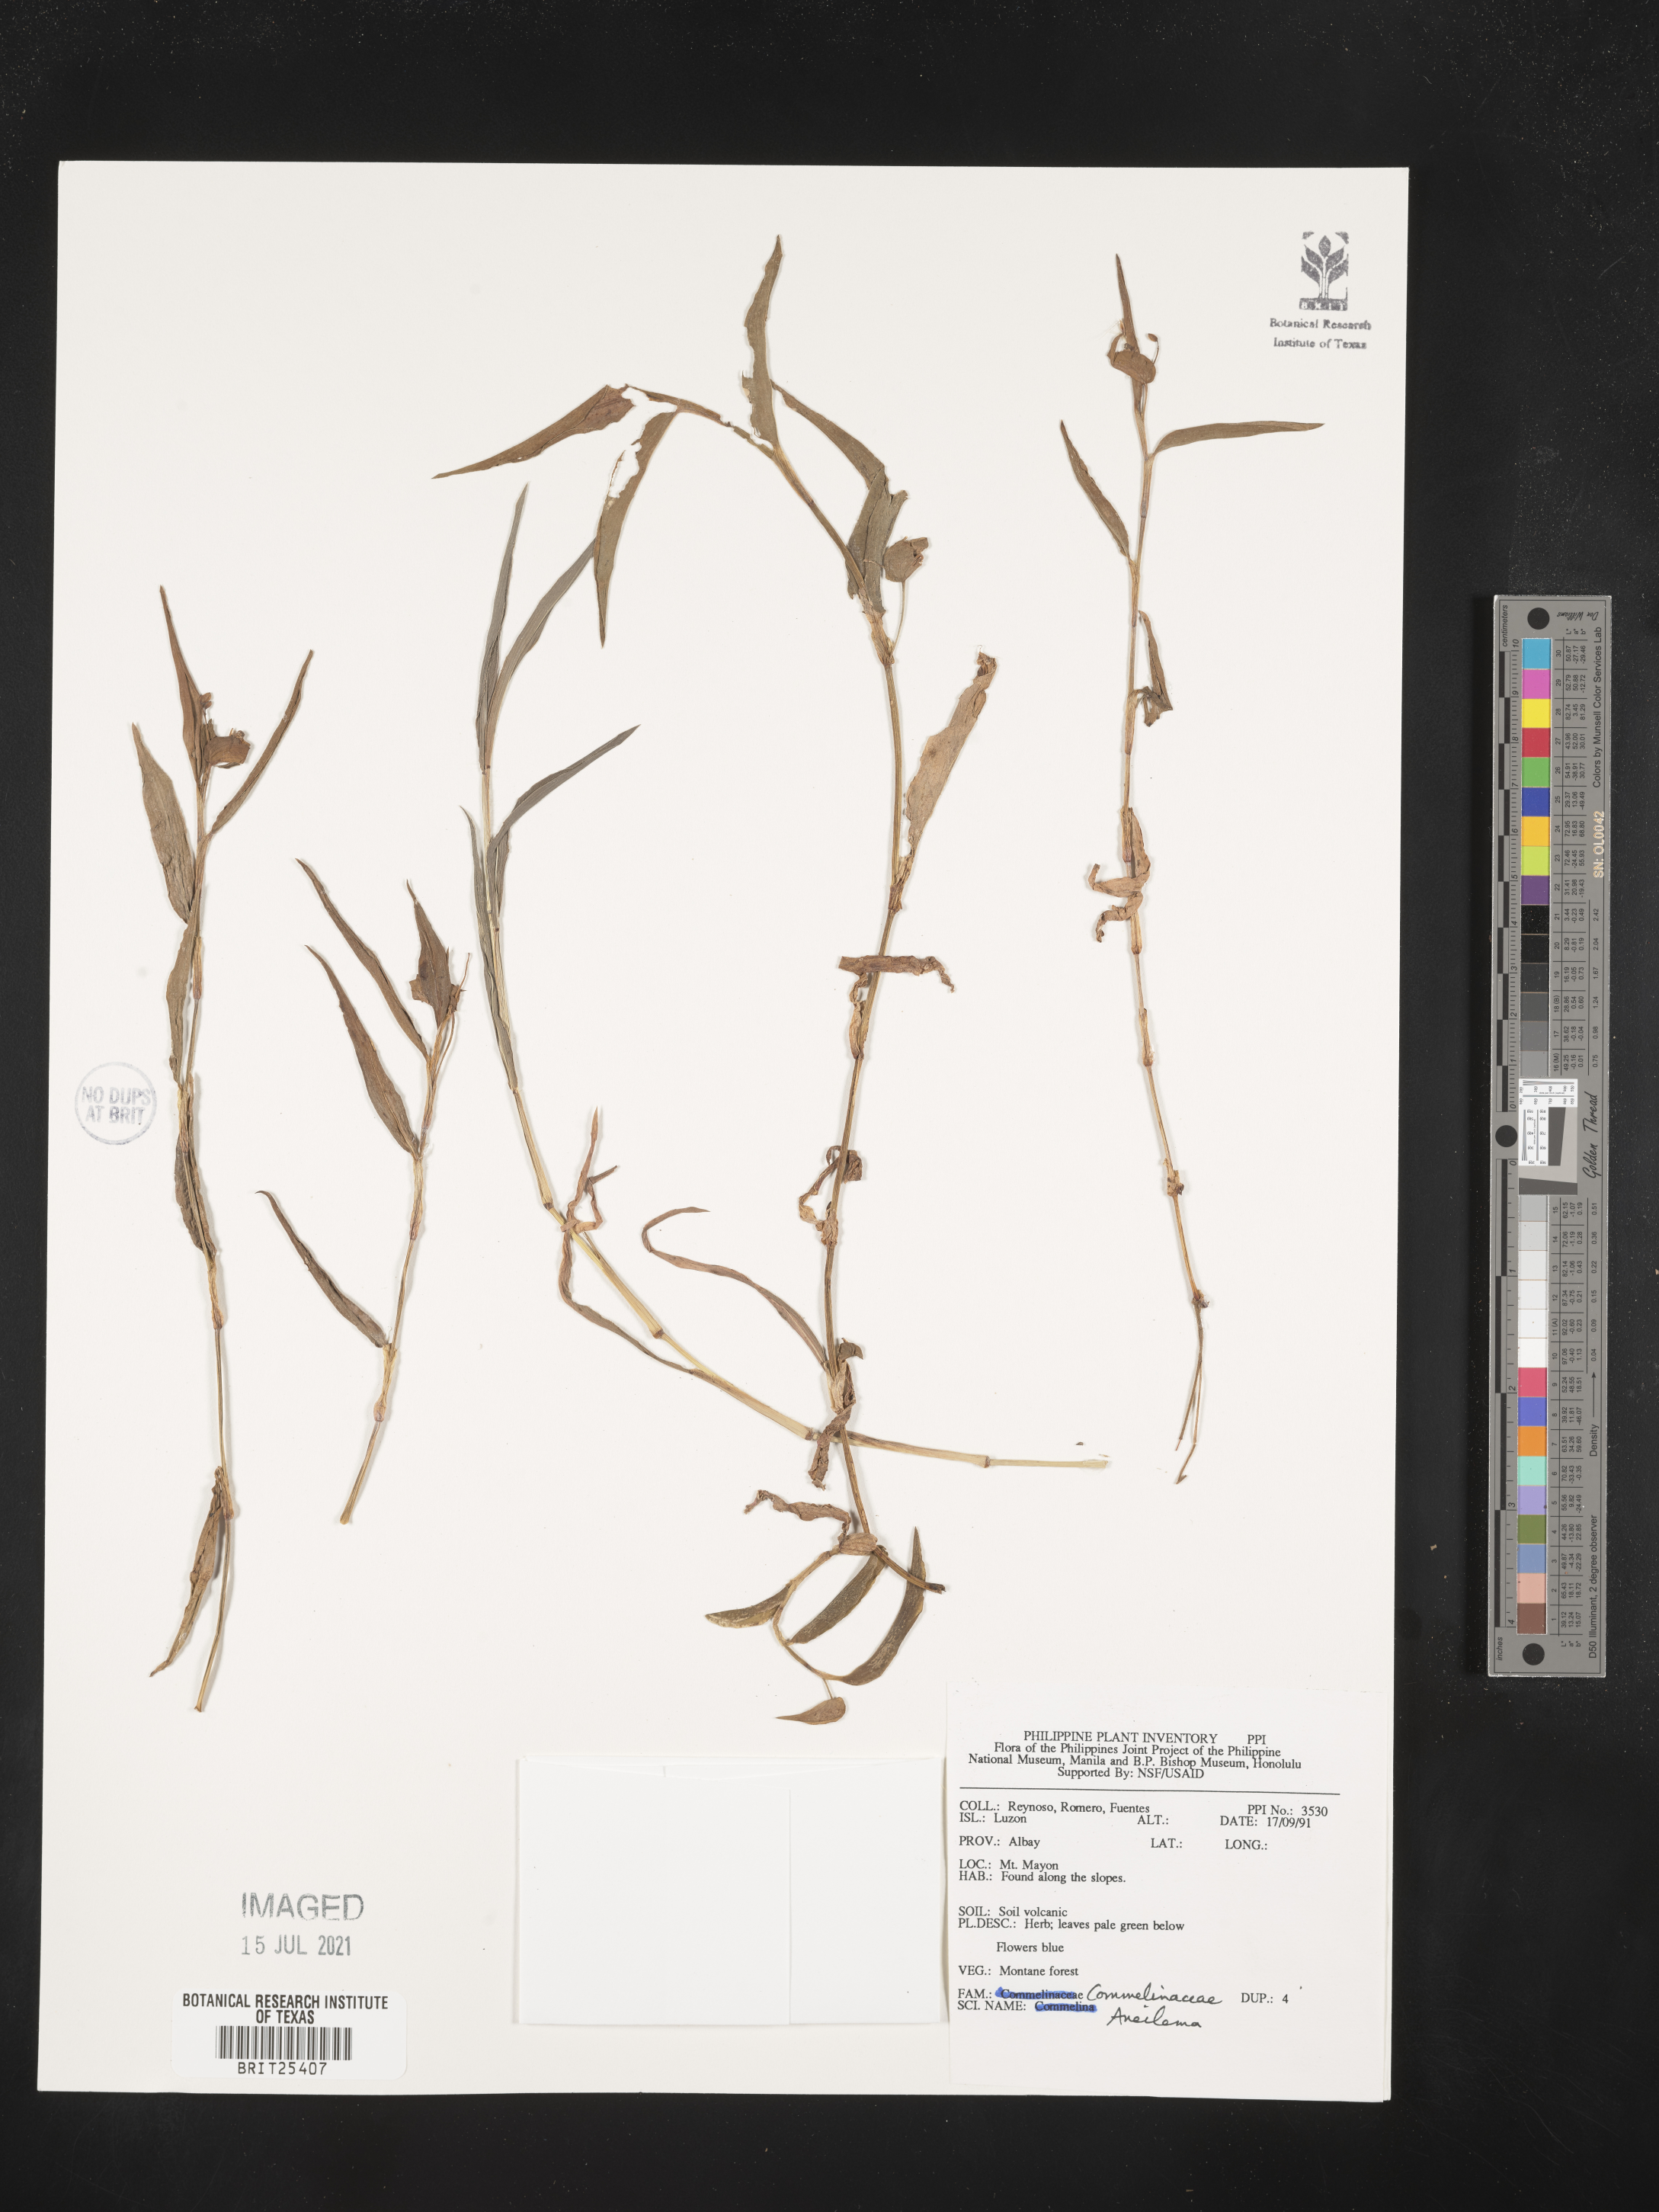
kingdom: Plantae
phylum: Tracheophyta
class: Liliopsida
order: Commelinales
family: Commelinaceae
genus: Aneilema
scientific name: Aneilema
